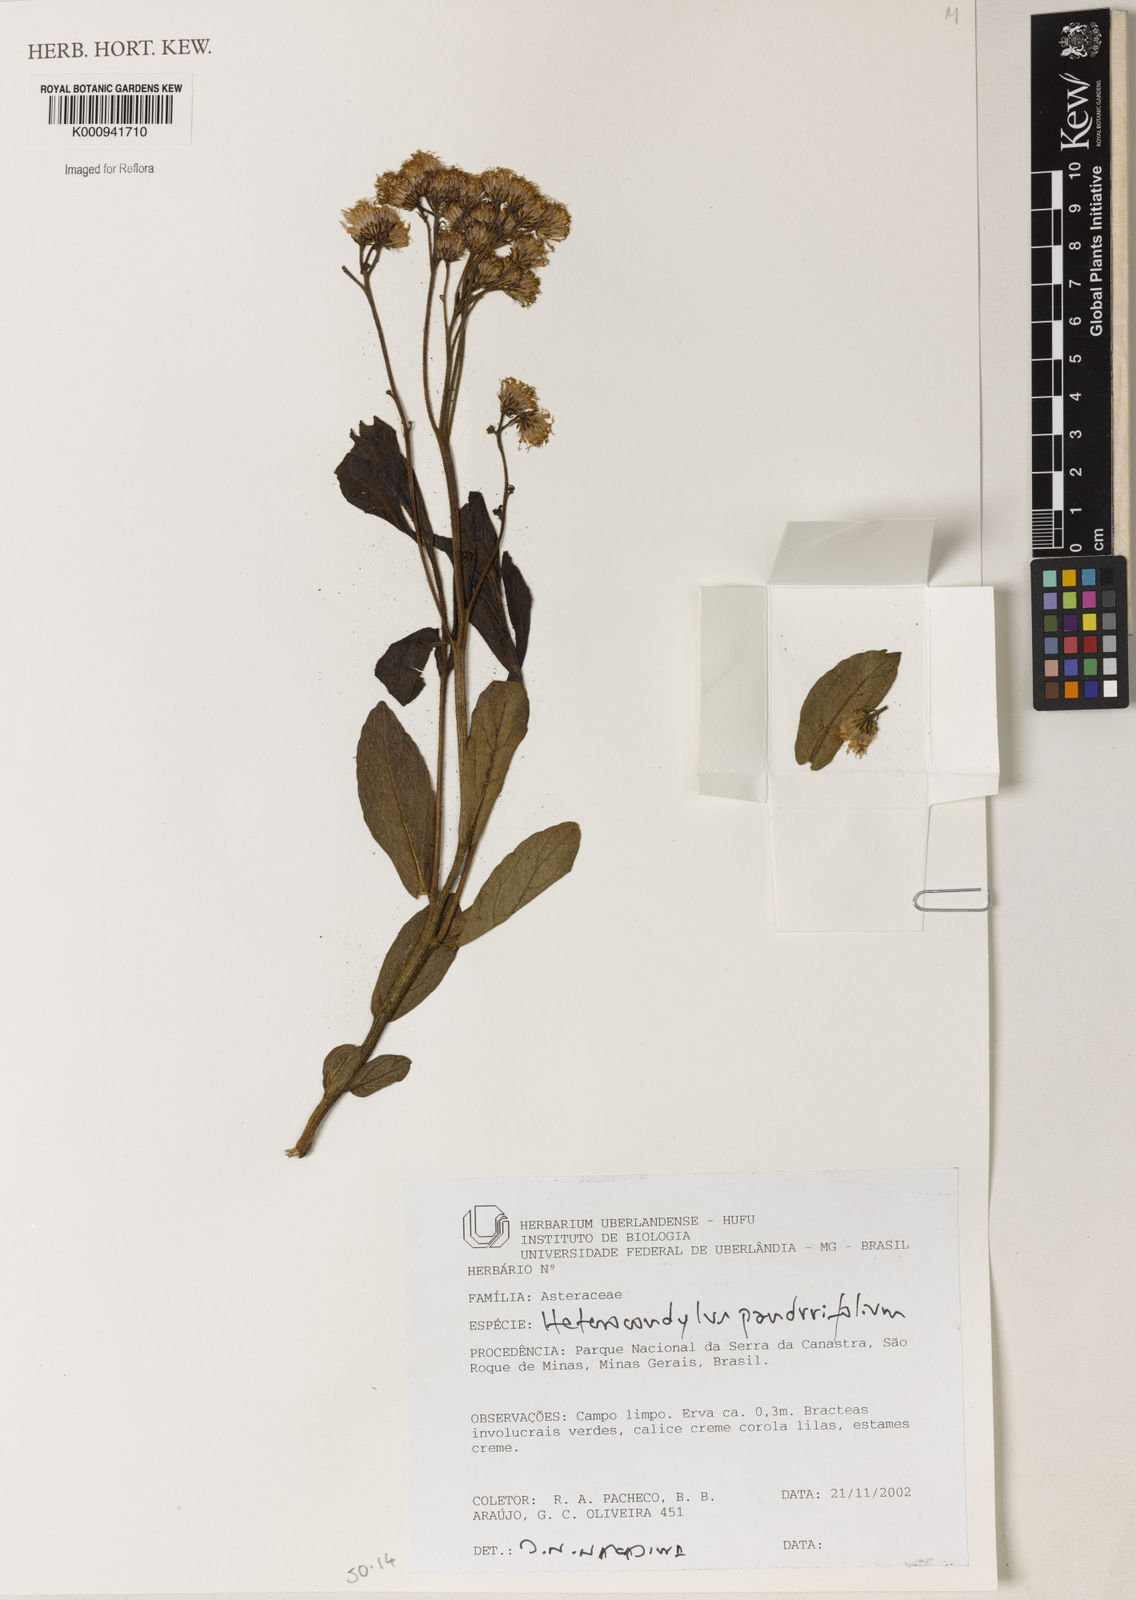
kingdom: Plantae
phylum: Tracheophyta
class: Magnoliopsida
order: Asterales
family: Asteraceae
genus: Heterocondylus
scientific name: Heterocondylus amphidictyus
